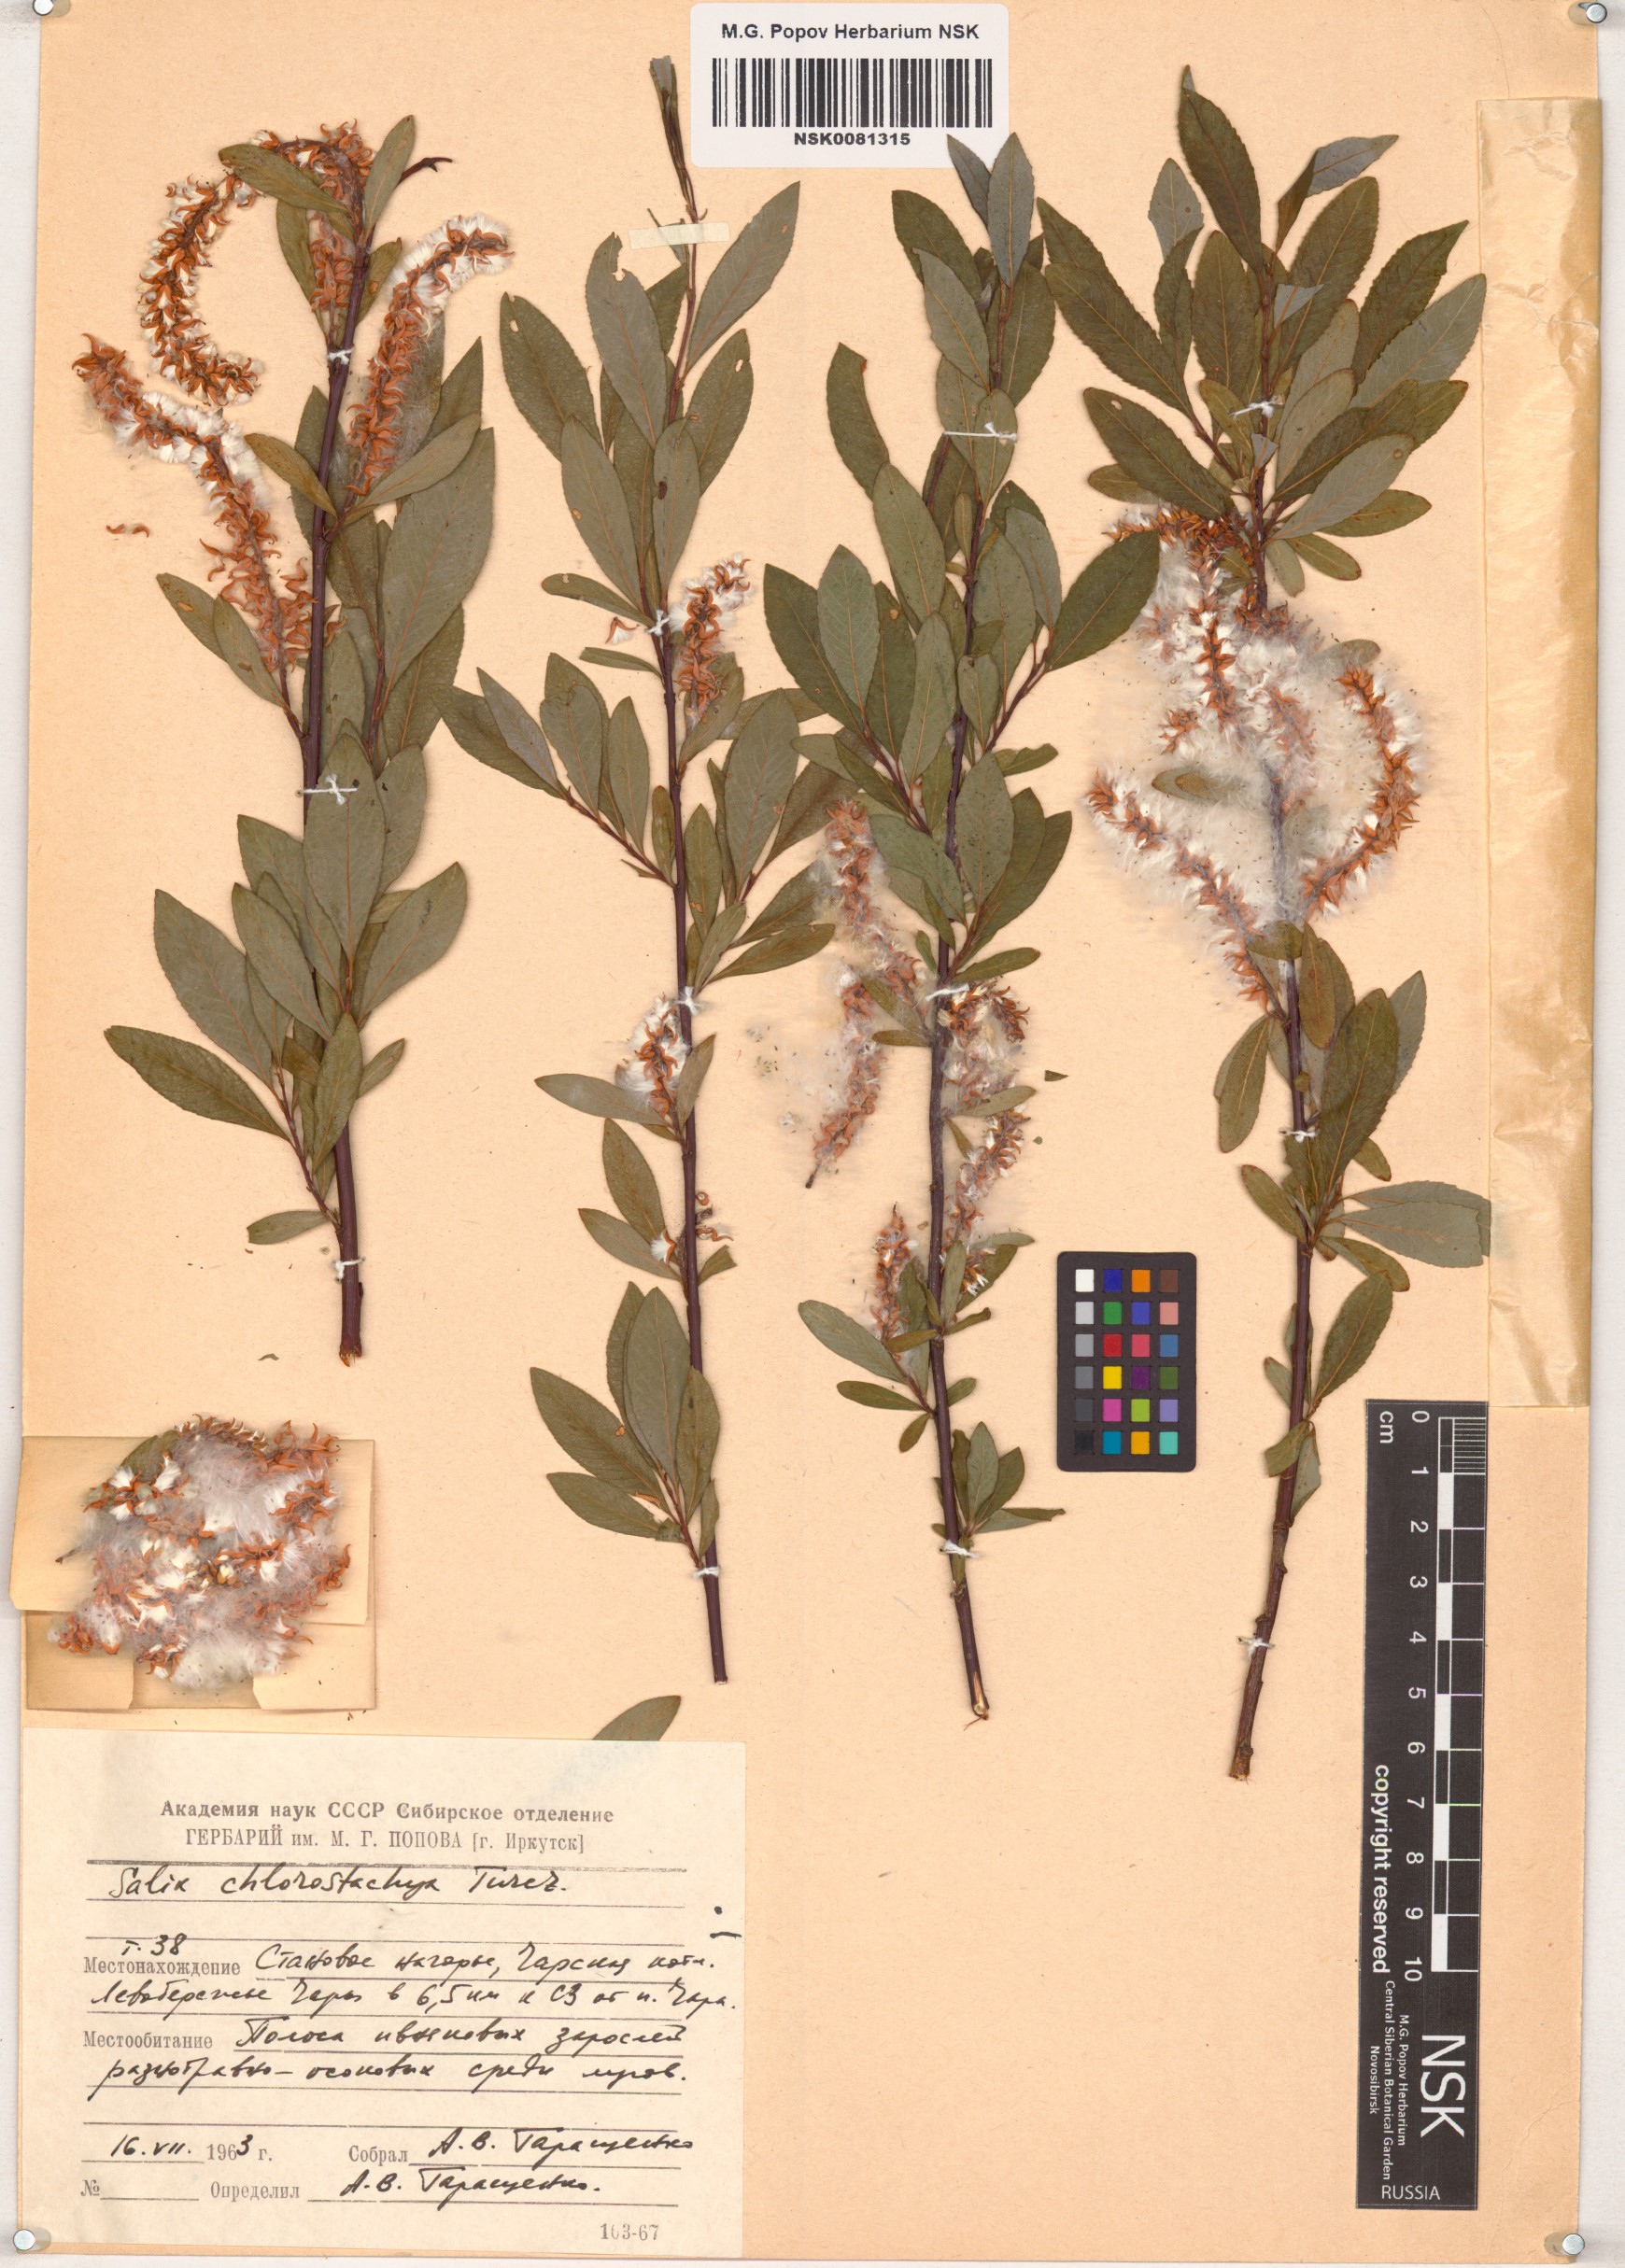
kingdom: Plantae
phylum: Tracheophyta
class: Magnoliopsida
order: Malpighiales
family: Salicaceae
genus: Salix
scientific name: Salix rhamnifolia
